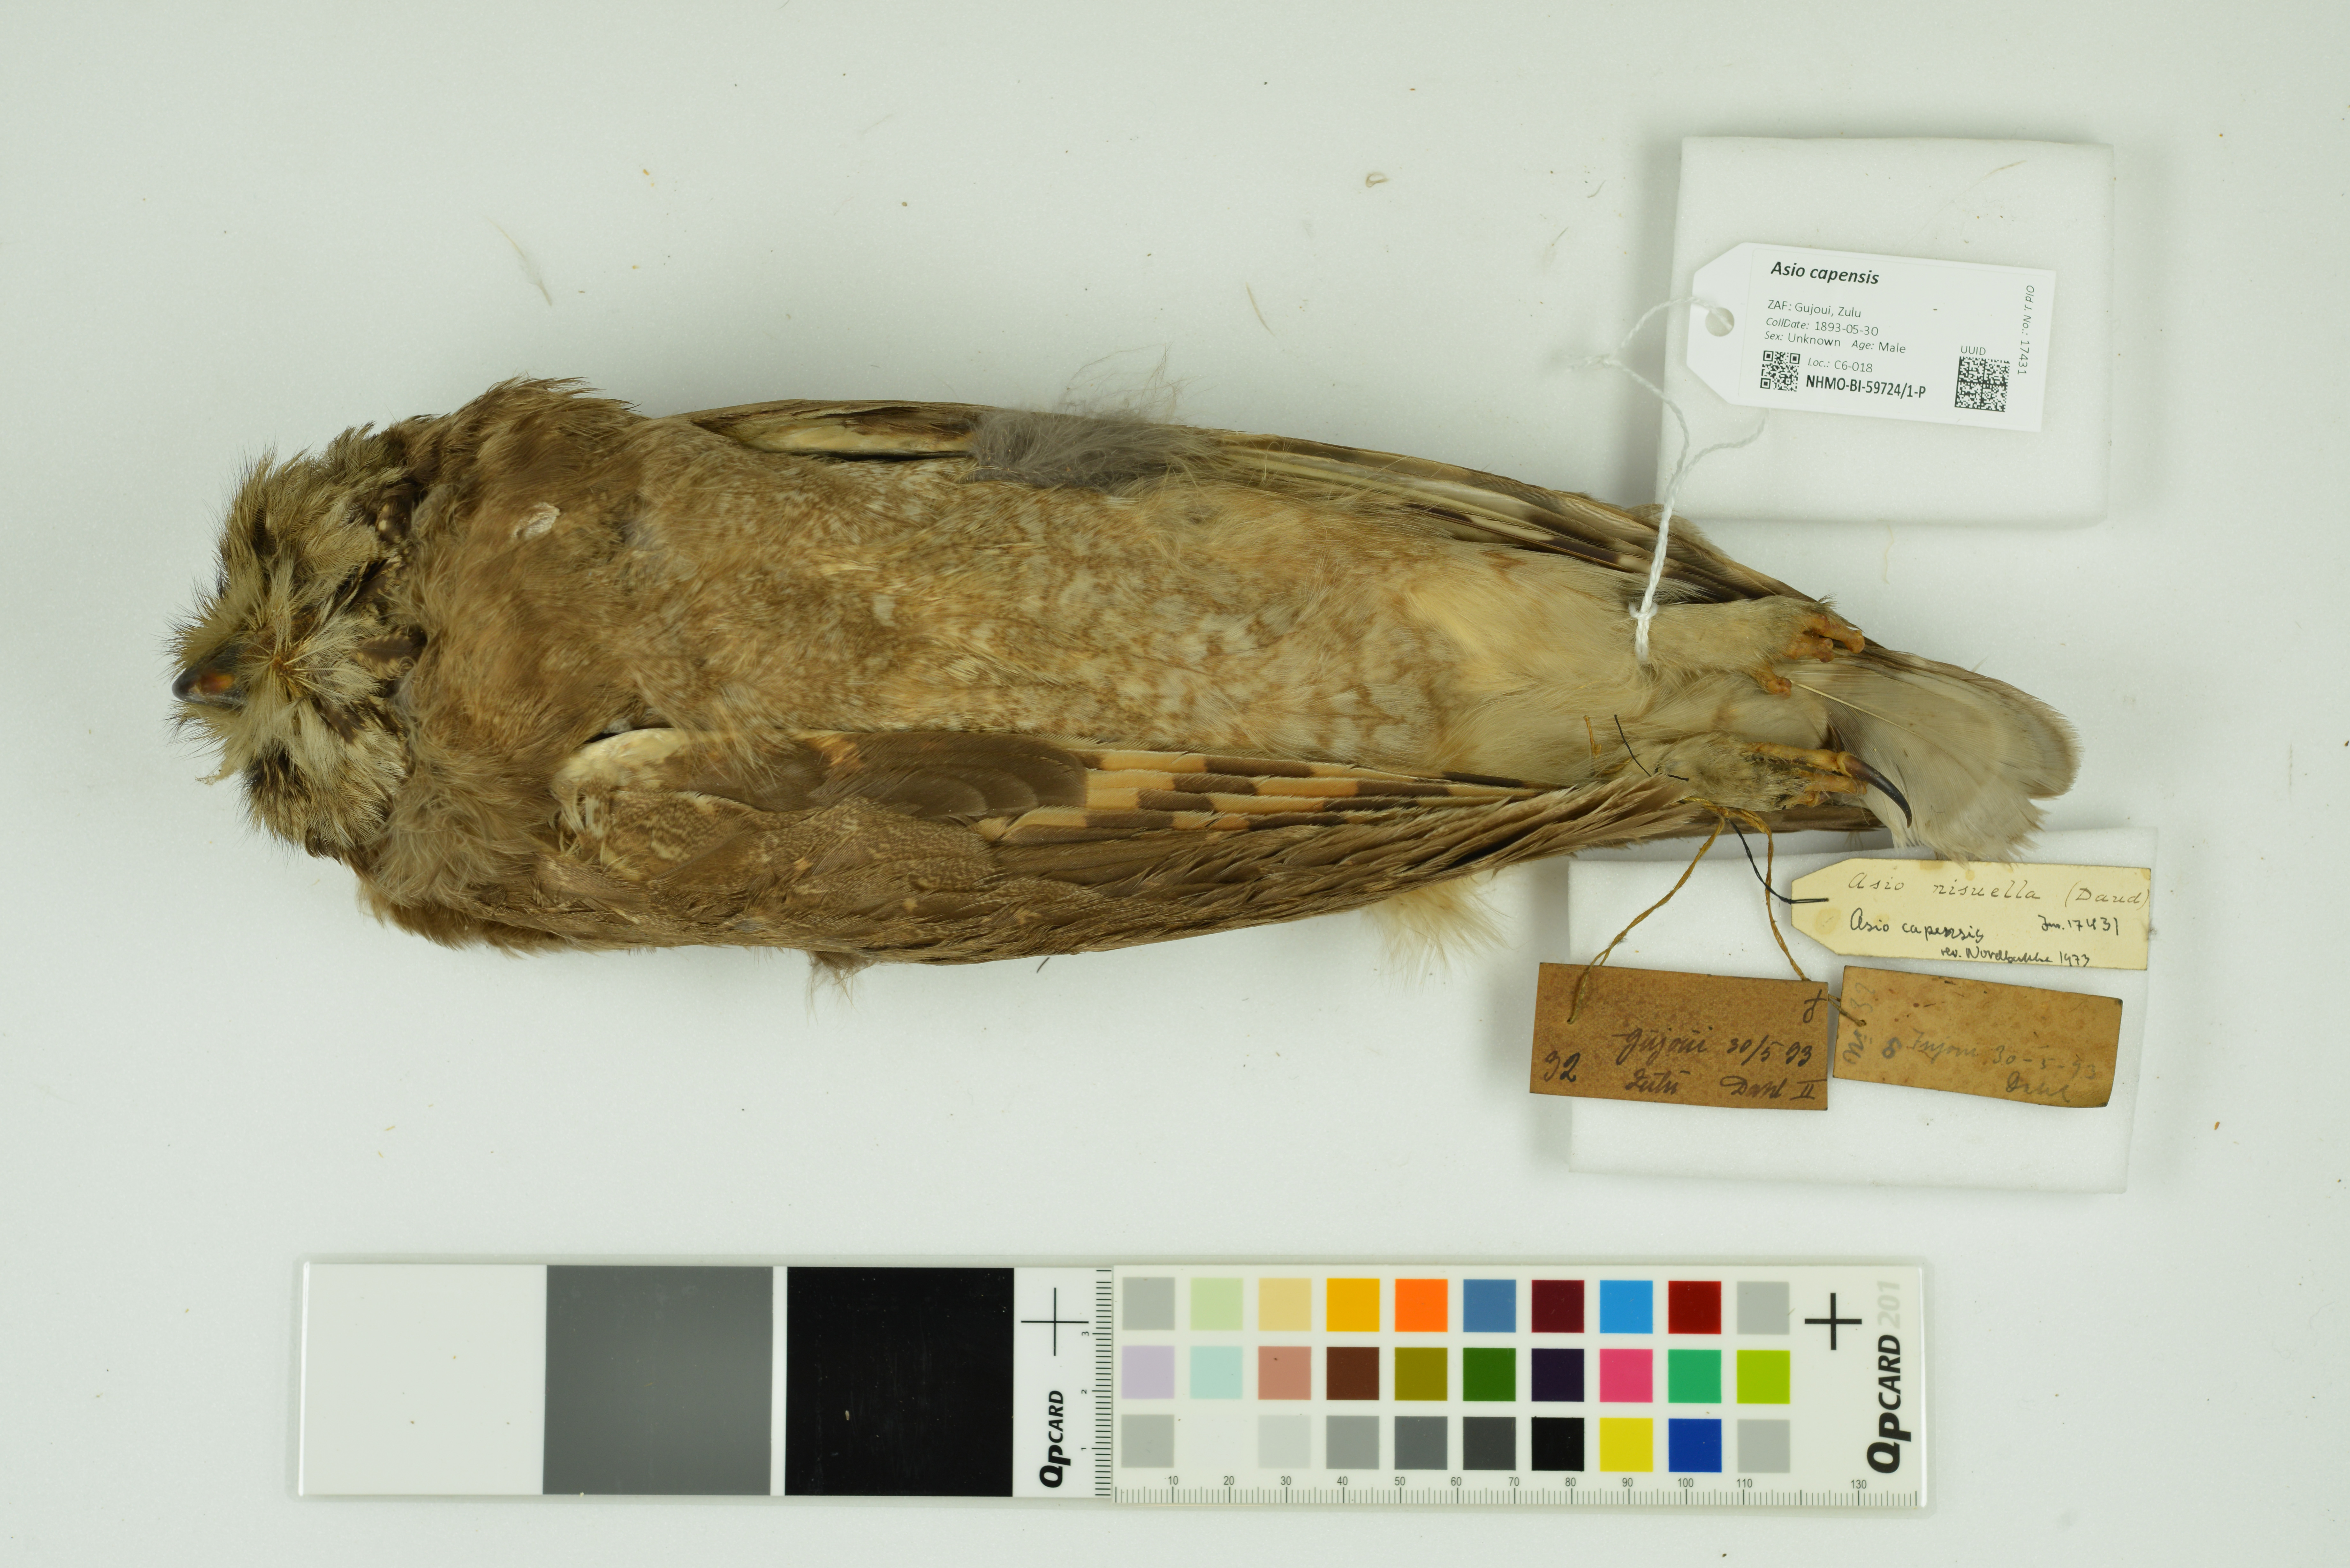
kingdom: Animalia
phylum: Chordata
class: Aves
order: Strigiformes
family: Strigidae
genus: Asio
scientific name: Asio capensis
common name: Marsh owl
